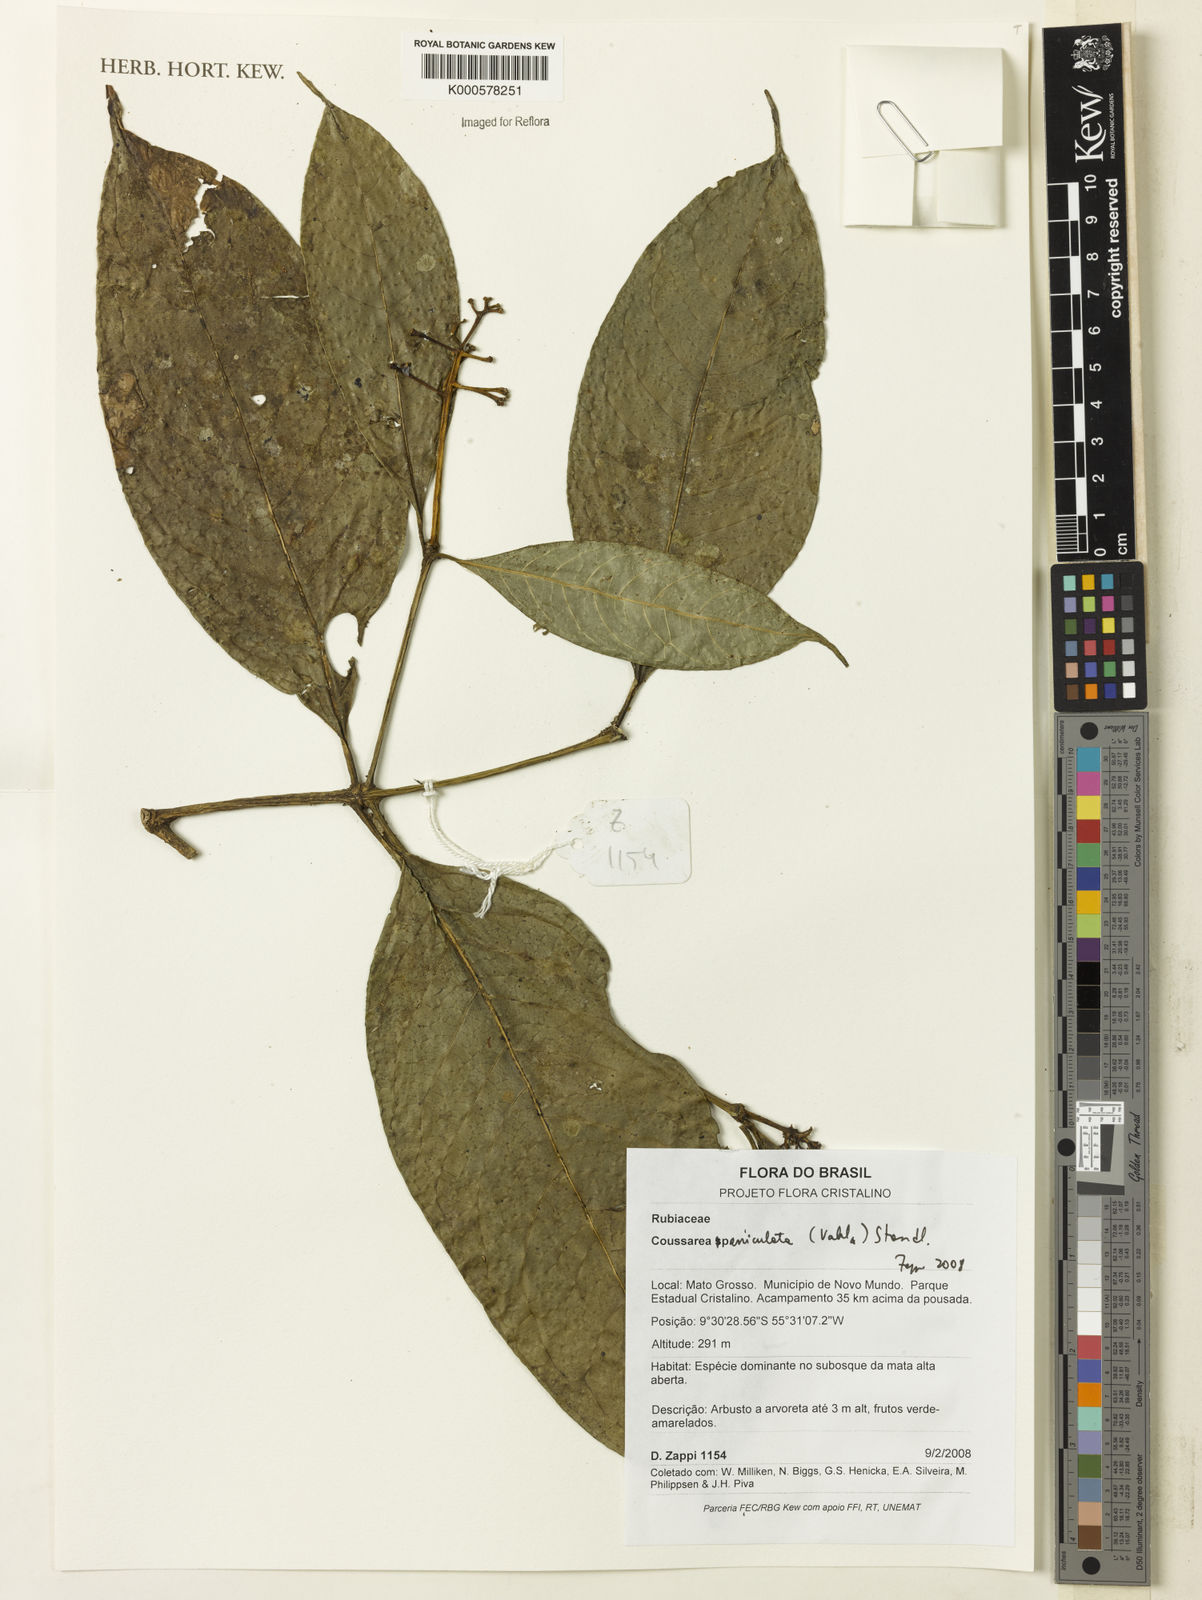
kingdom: Plantae
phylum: Tracheophyta
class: Magnoliopsida
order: Gentianales
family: Rubiaceae
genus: Coussarea
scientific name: Coussarea paniculata
